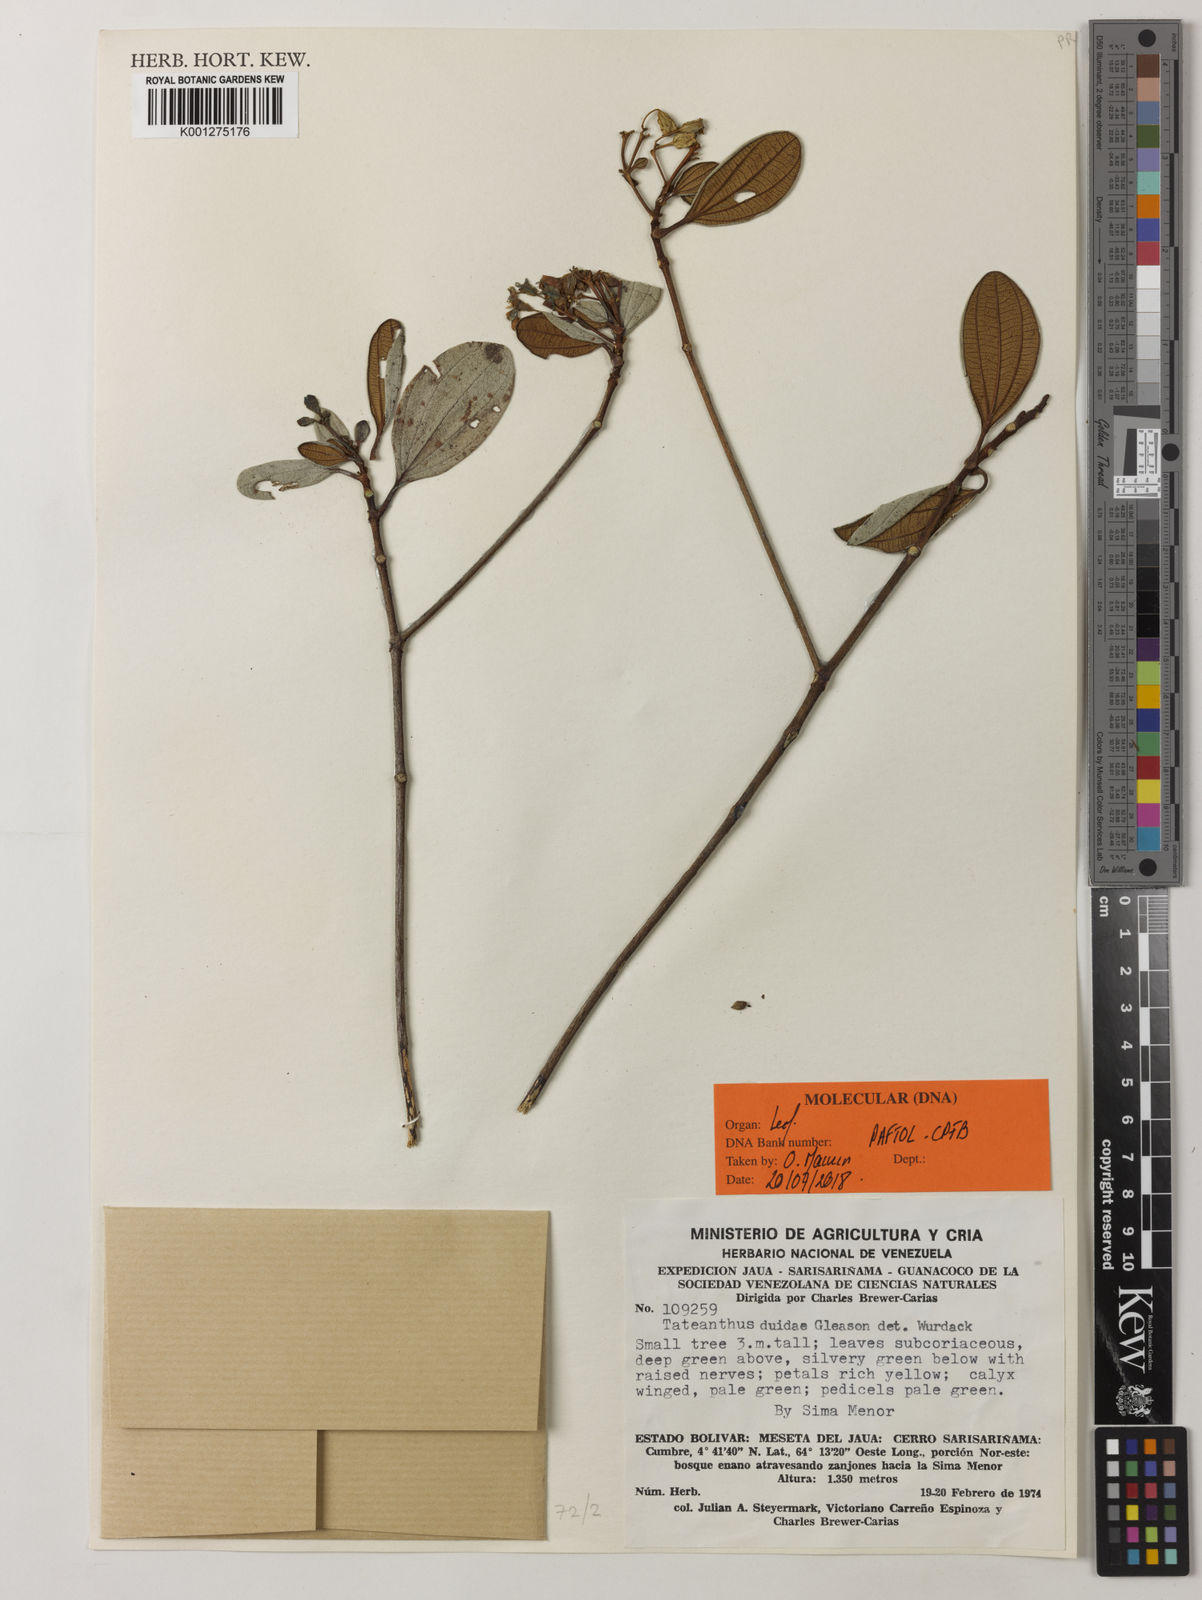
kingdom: Plantae
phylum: Tracheophyta
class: Magnoliopsida
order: Myrtales
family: Melastomataceae
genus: Tateanthus
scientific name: Tateanthus duidae
